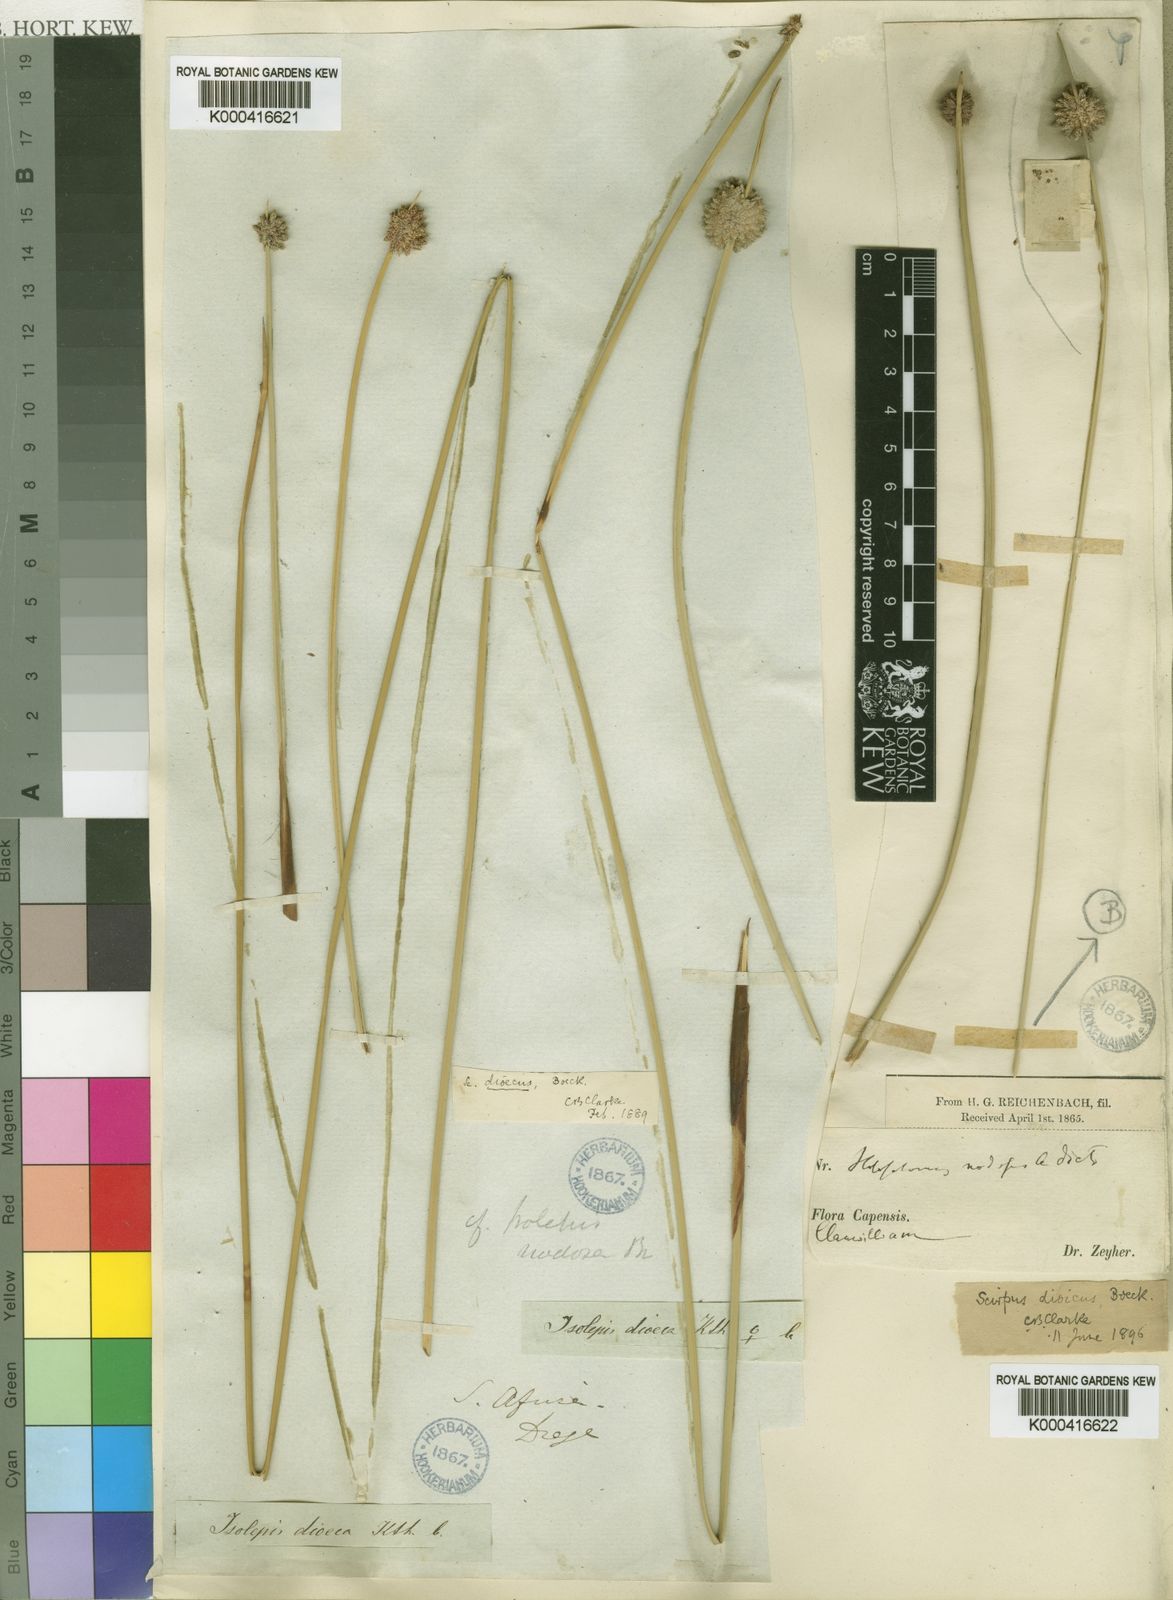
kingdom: Plantae
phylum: Tracheophyta
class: Liliopsida
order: Poales
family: Cyperaceae
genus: Afroscirpoides
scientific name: Afroscirpoides dioeca
